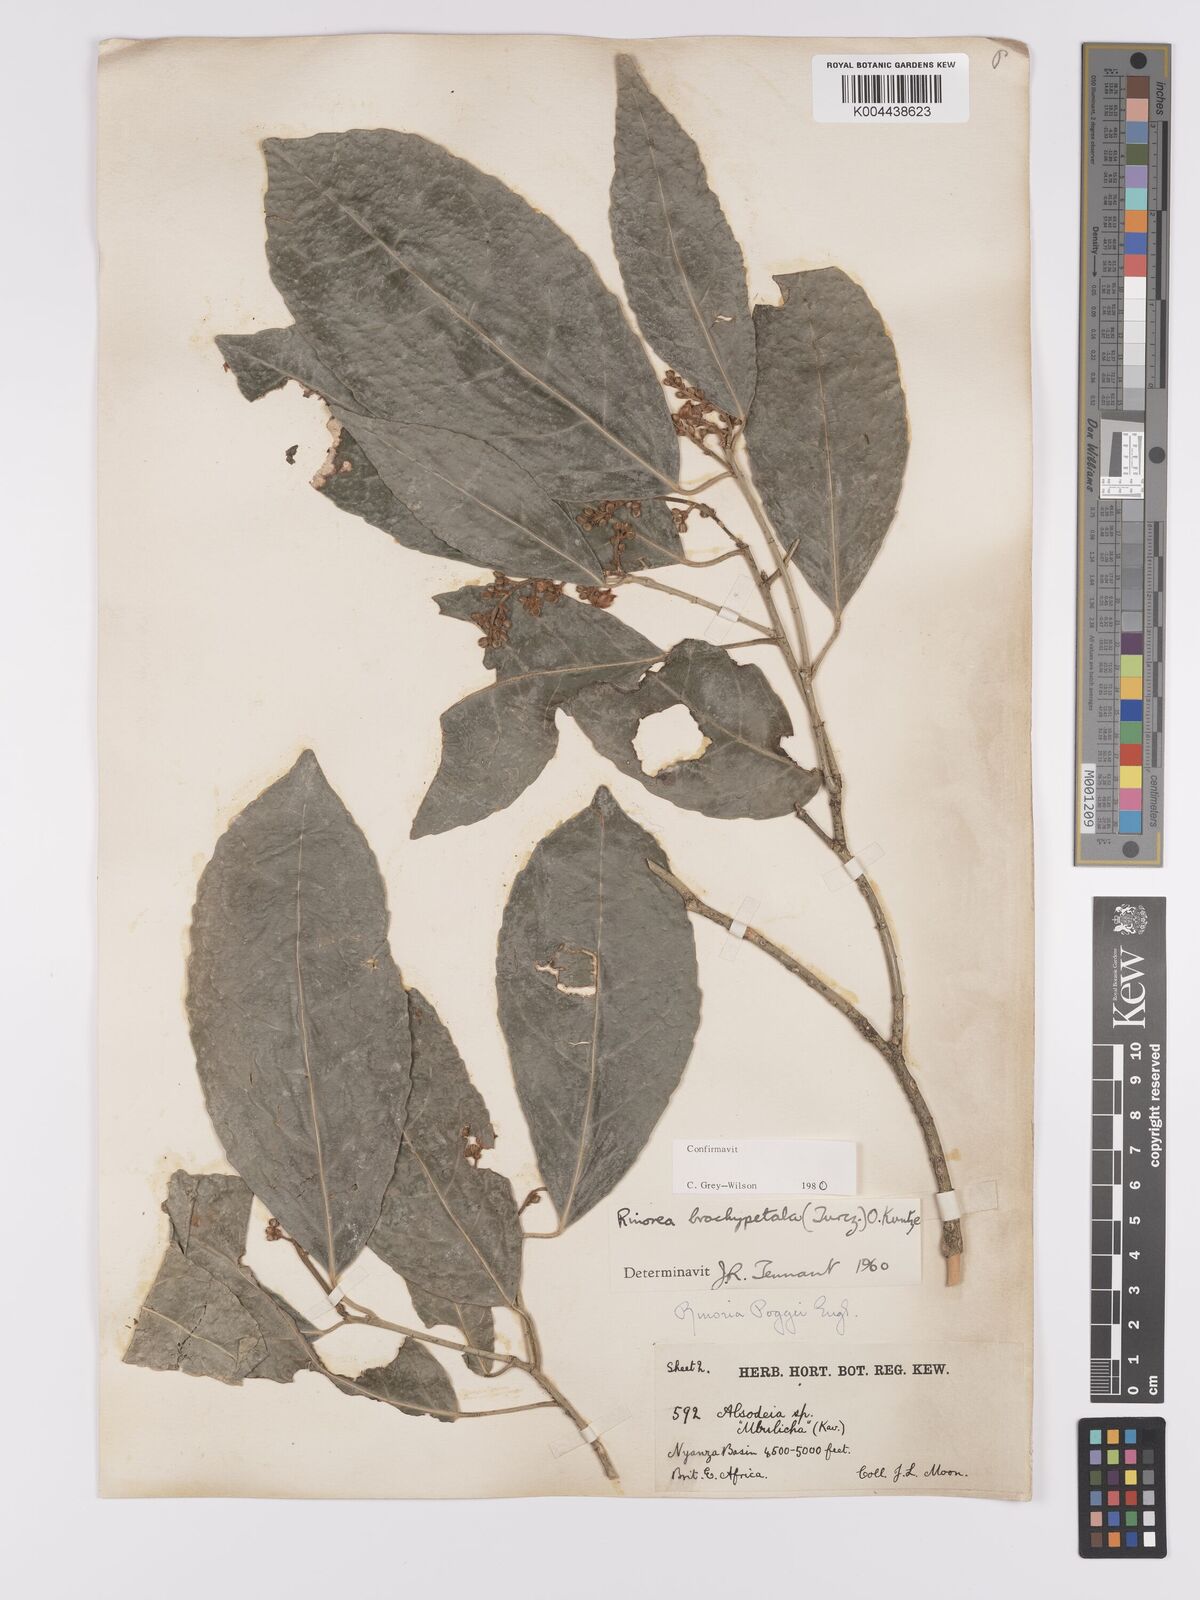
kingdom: Plantae
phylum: Tracheophyta
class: Magnoliopsida
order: Malpighiales
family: Violaceae
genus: Rinorea
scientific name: Rinorea brachypetala
